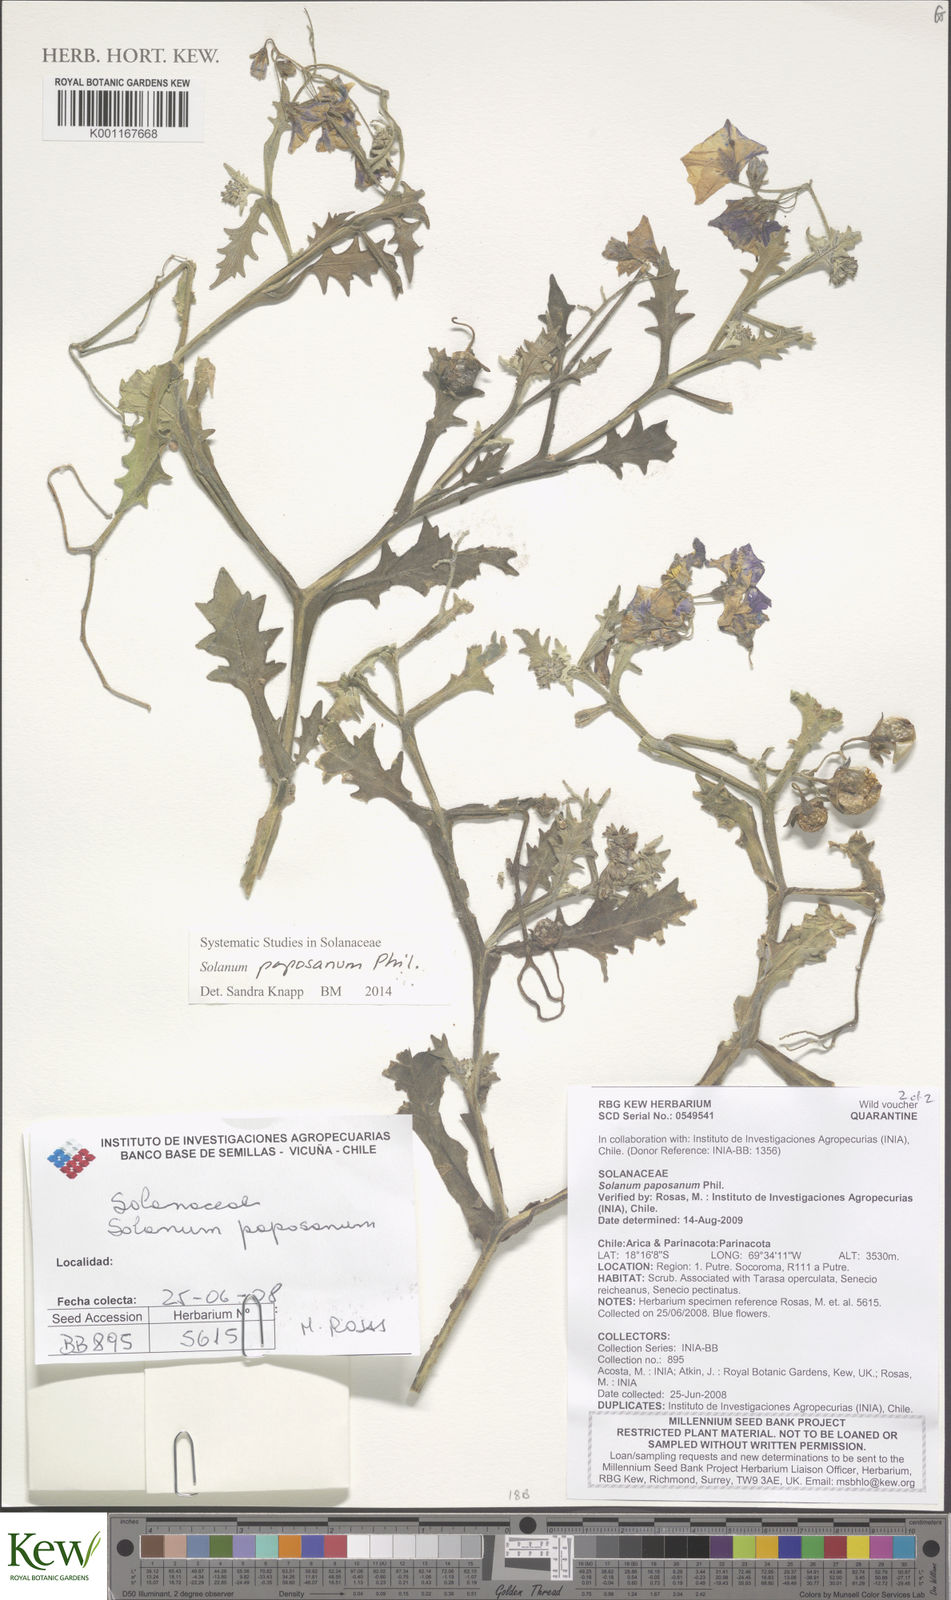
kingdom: Plantae
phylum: Tracheophyta
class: Magnoliopsida
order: Solanales
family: Solanaceae
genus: Solanum
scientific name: Solanum paposanum
